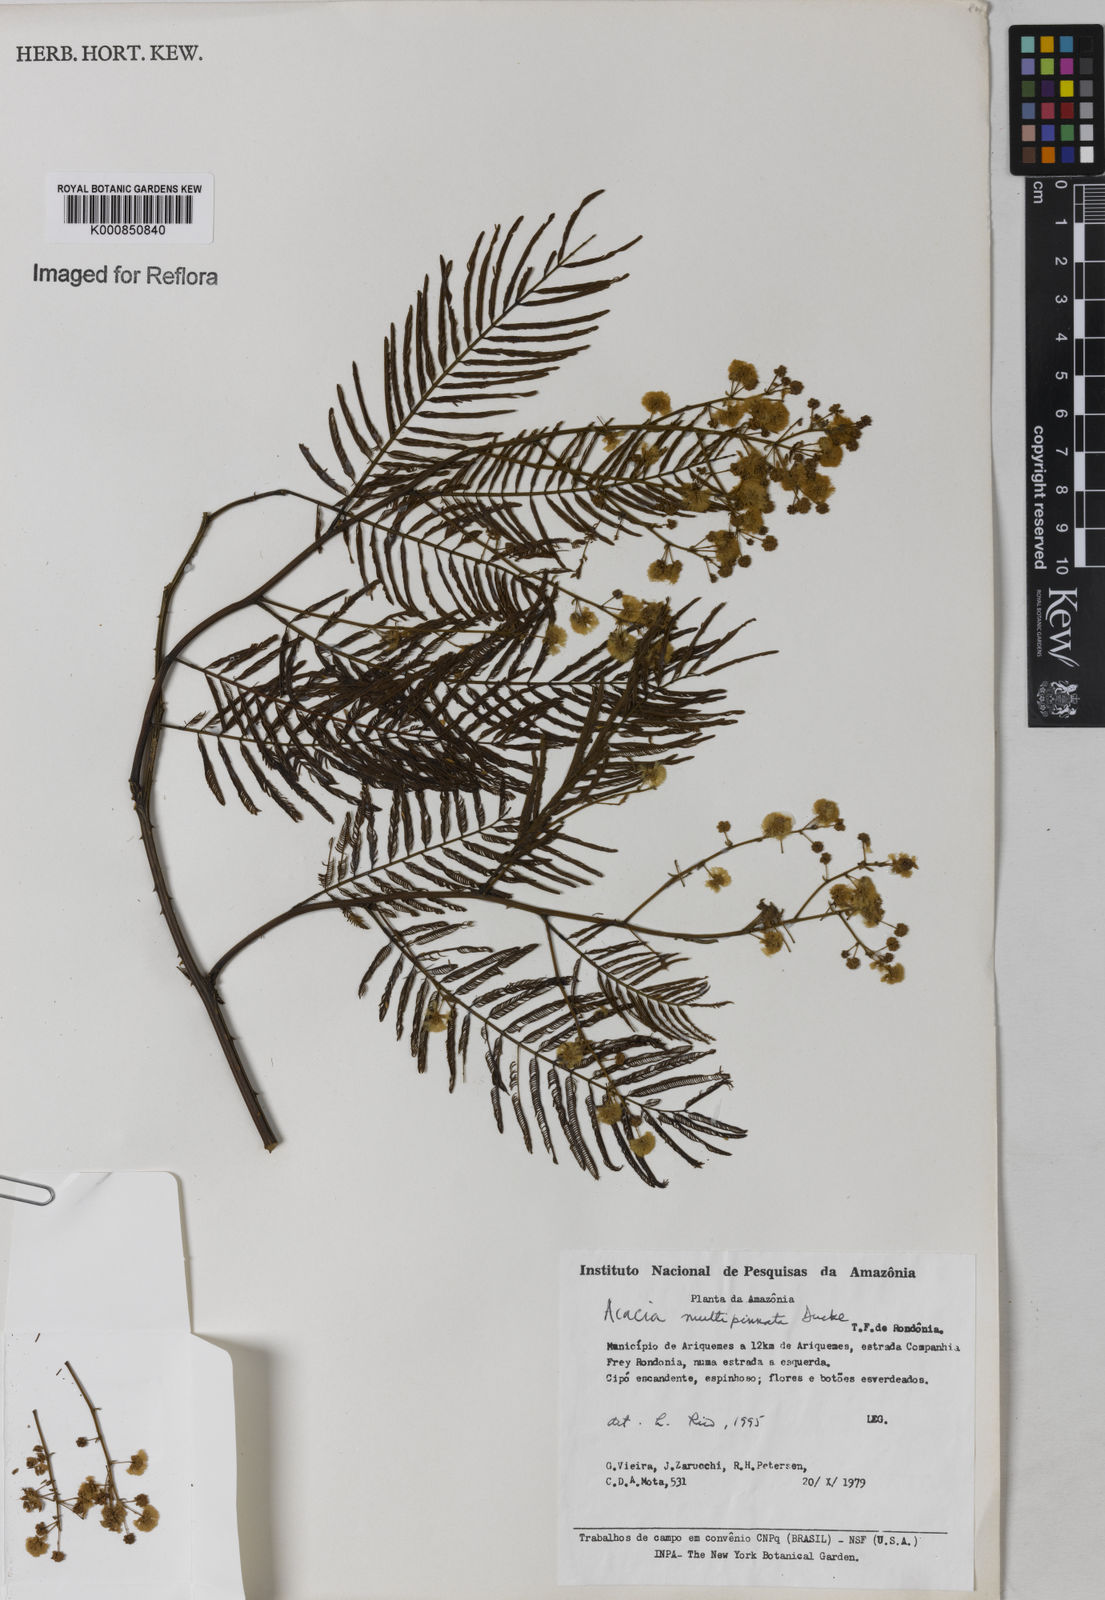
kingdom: Plantae
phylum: Tracheophyta
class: Magnoliopsida
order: Fabales
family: Fabaceae
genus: Senegalia
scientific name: Senegalia paniculata
